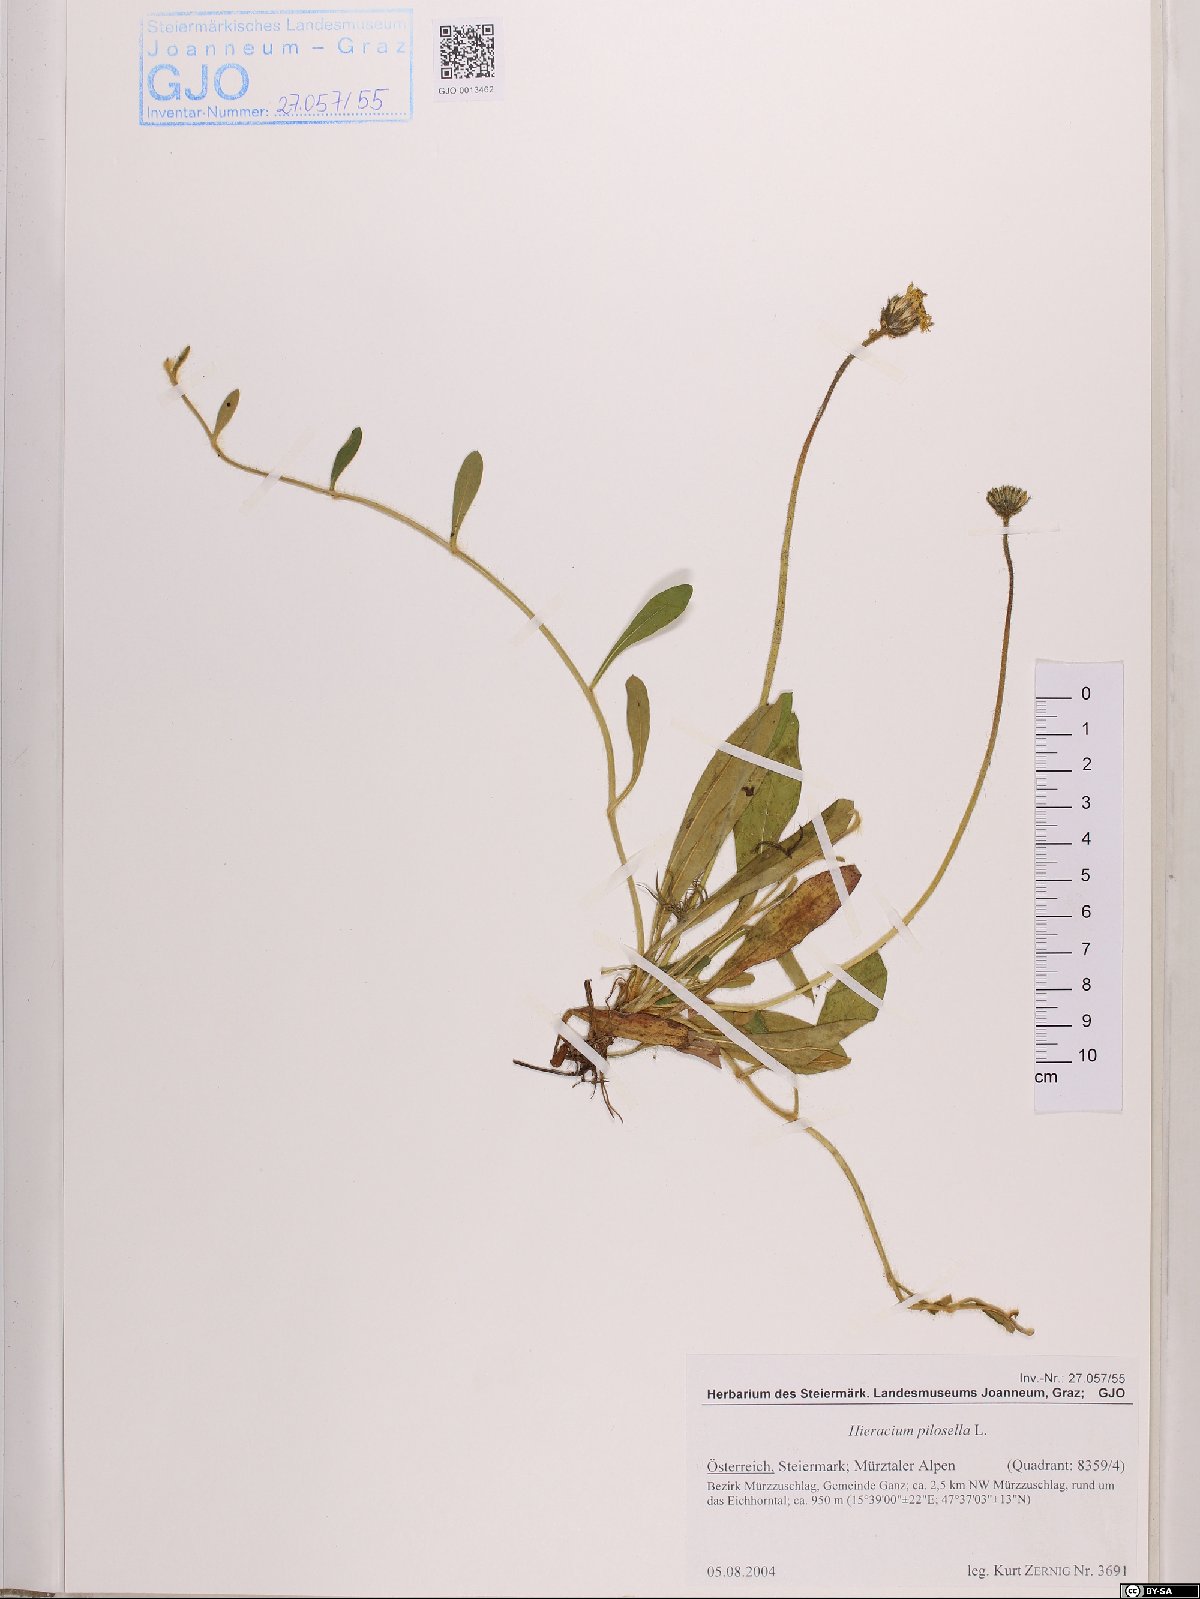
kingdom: Plantae
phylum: Tracheophyta
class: Magnoliopsida
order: Asterales
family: Asteraceae
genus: Pilosella
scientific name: Pilosella officinarum
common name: Mouse-ear hawkweed
